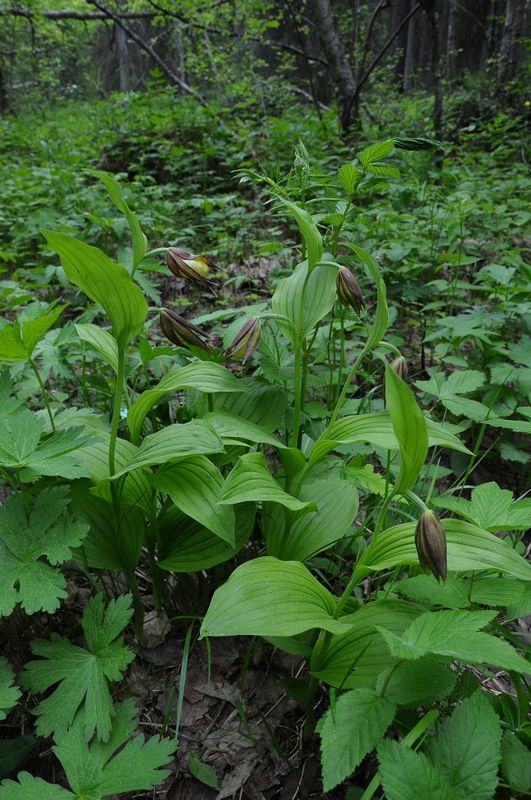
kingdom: Plantae
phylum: Tracheophyta
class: Liliopsida
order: Asparagales
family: Orchidaceae
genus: Cypripedium
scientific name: Cypripedium calceolus
